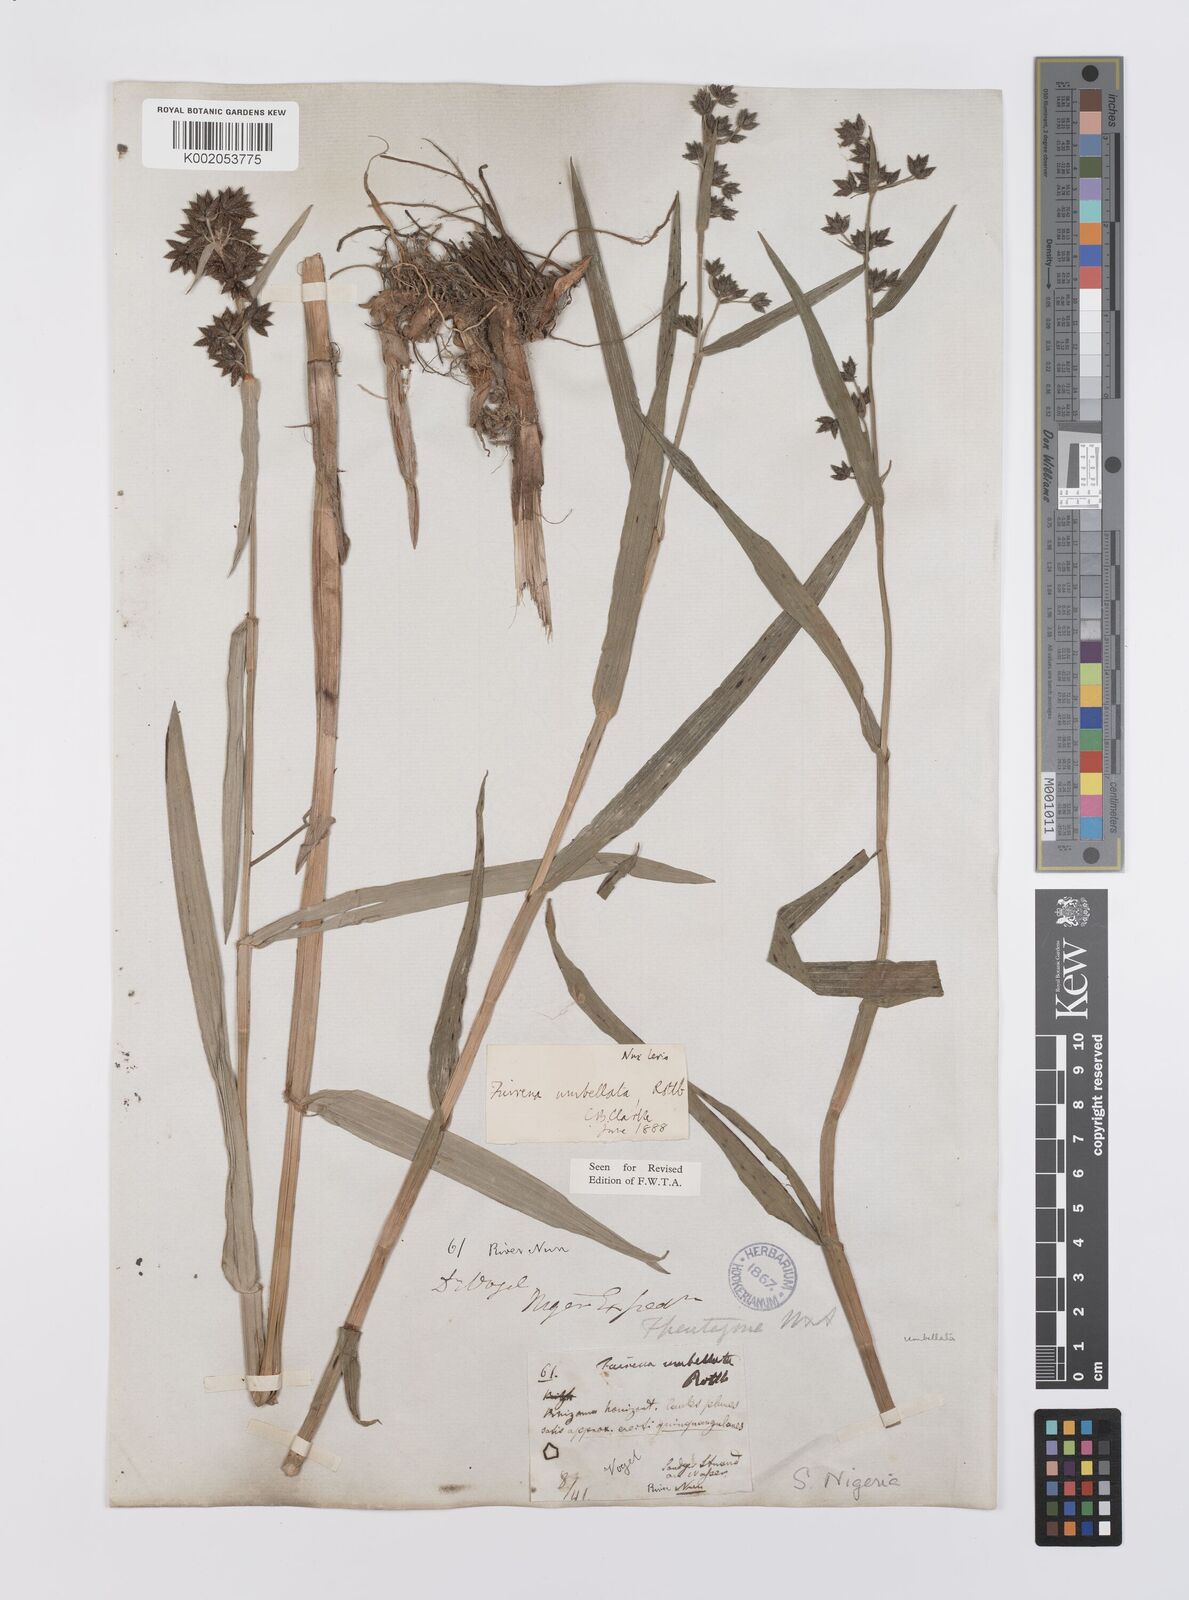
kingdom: Plantae
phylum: Tracheophyta
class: Liliopsida
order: Poales
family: Cyperaceae
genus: Fuirena
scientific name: Fuirena umbellata
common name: Yefen
